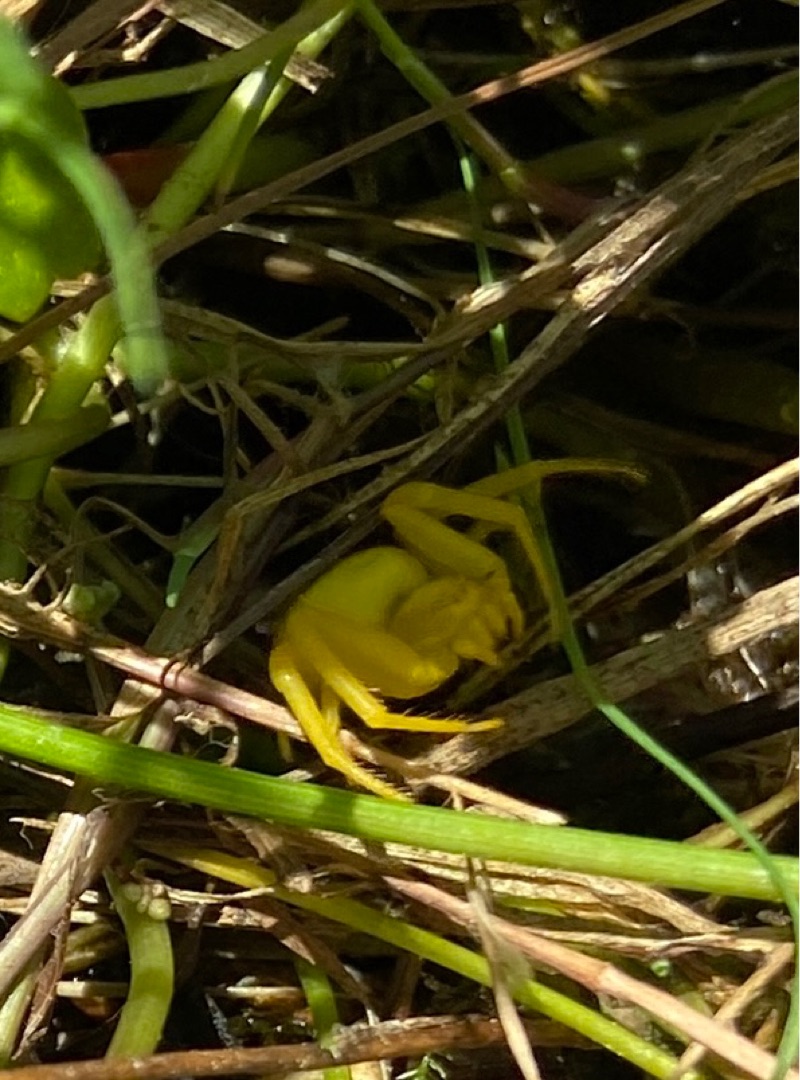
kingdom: Animalia
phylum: Arthropoda
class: Arachnida
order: Araneae
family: Thomisidae
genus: Misumena
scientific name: Misumena vatia
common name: Kamæleonedderkop
